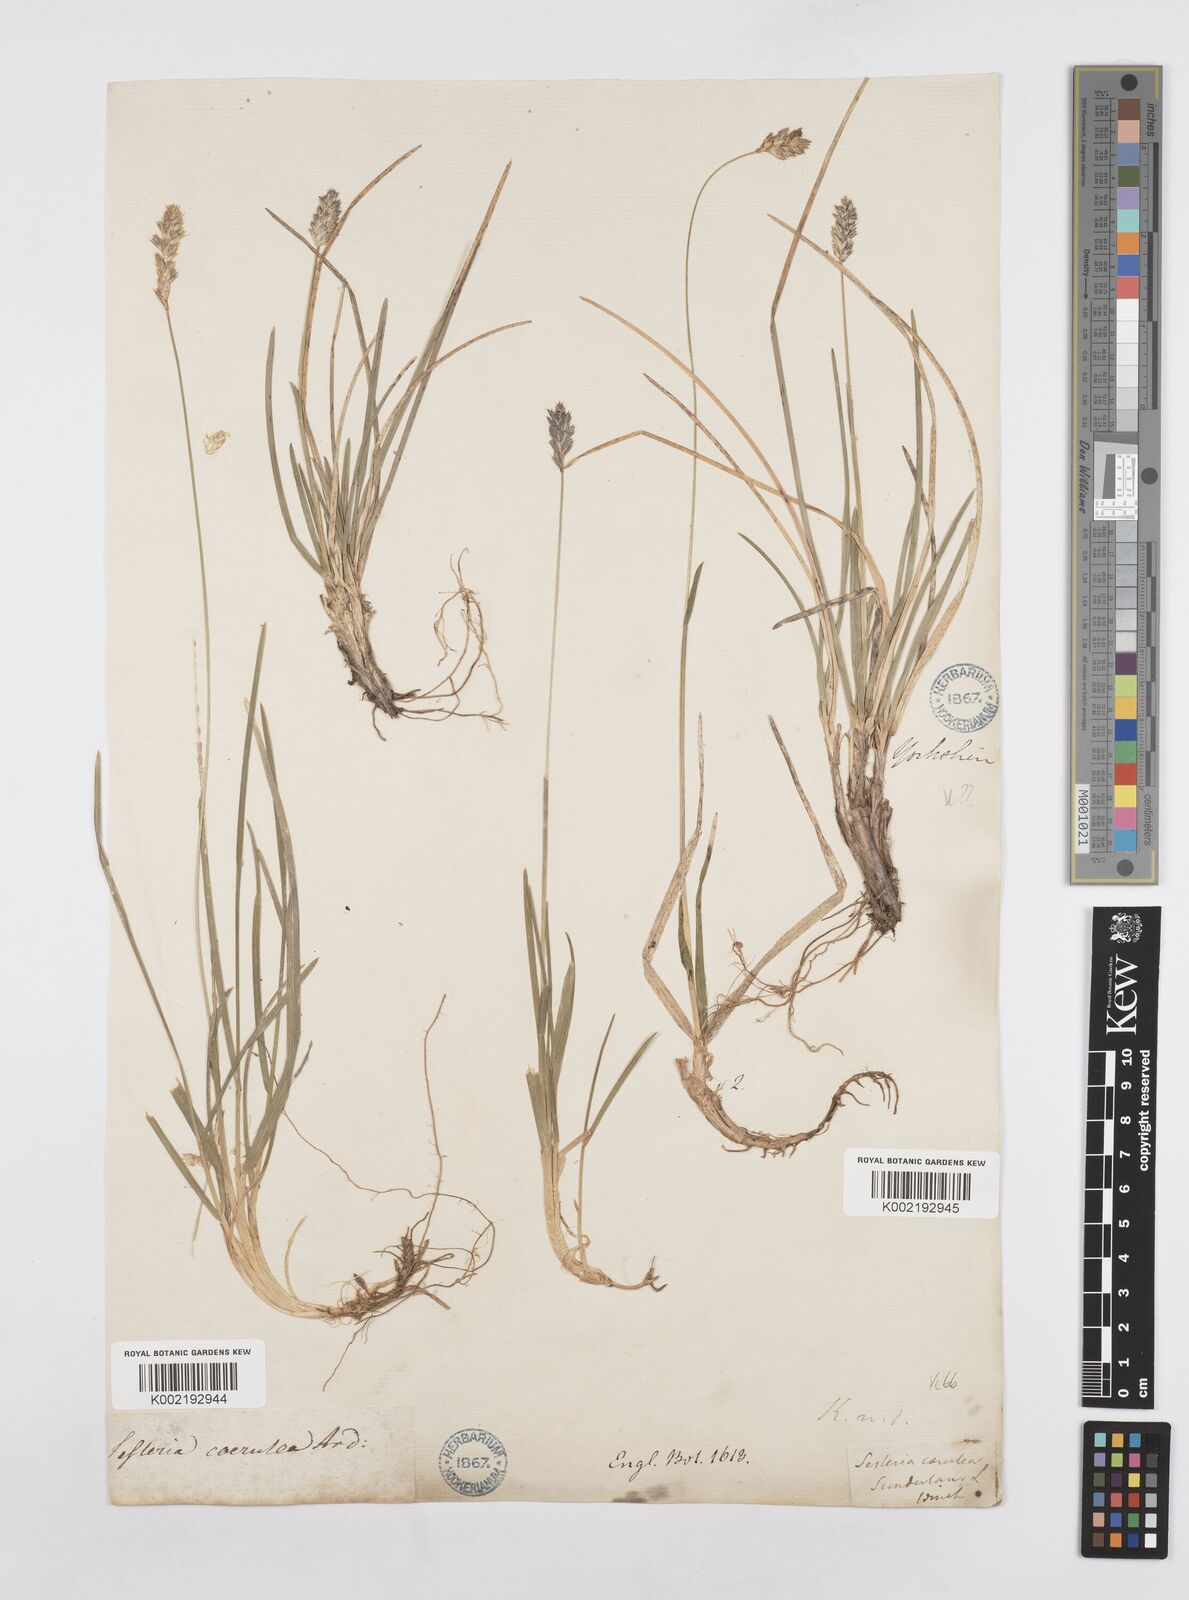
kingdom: Plantae
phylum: Tracheophyta
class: Liliopsida
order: Poales
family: Poaceae
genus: Sesleria
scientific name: Sesleria caerulea
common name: Blue moor-grass
